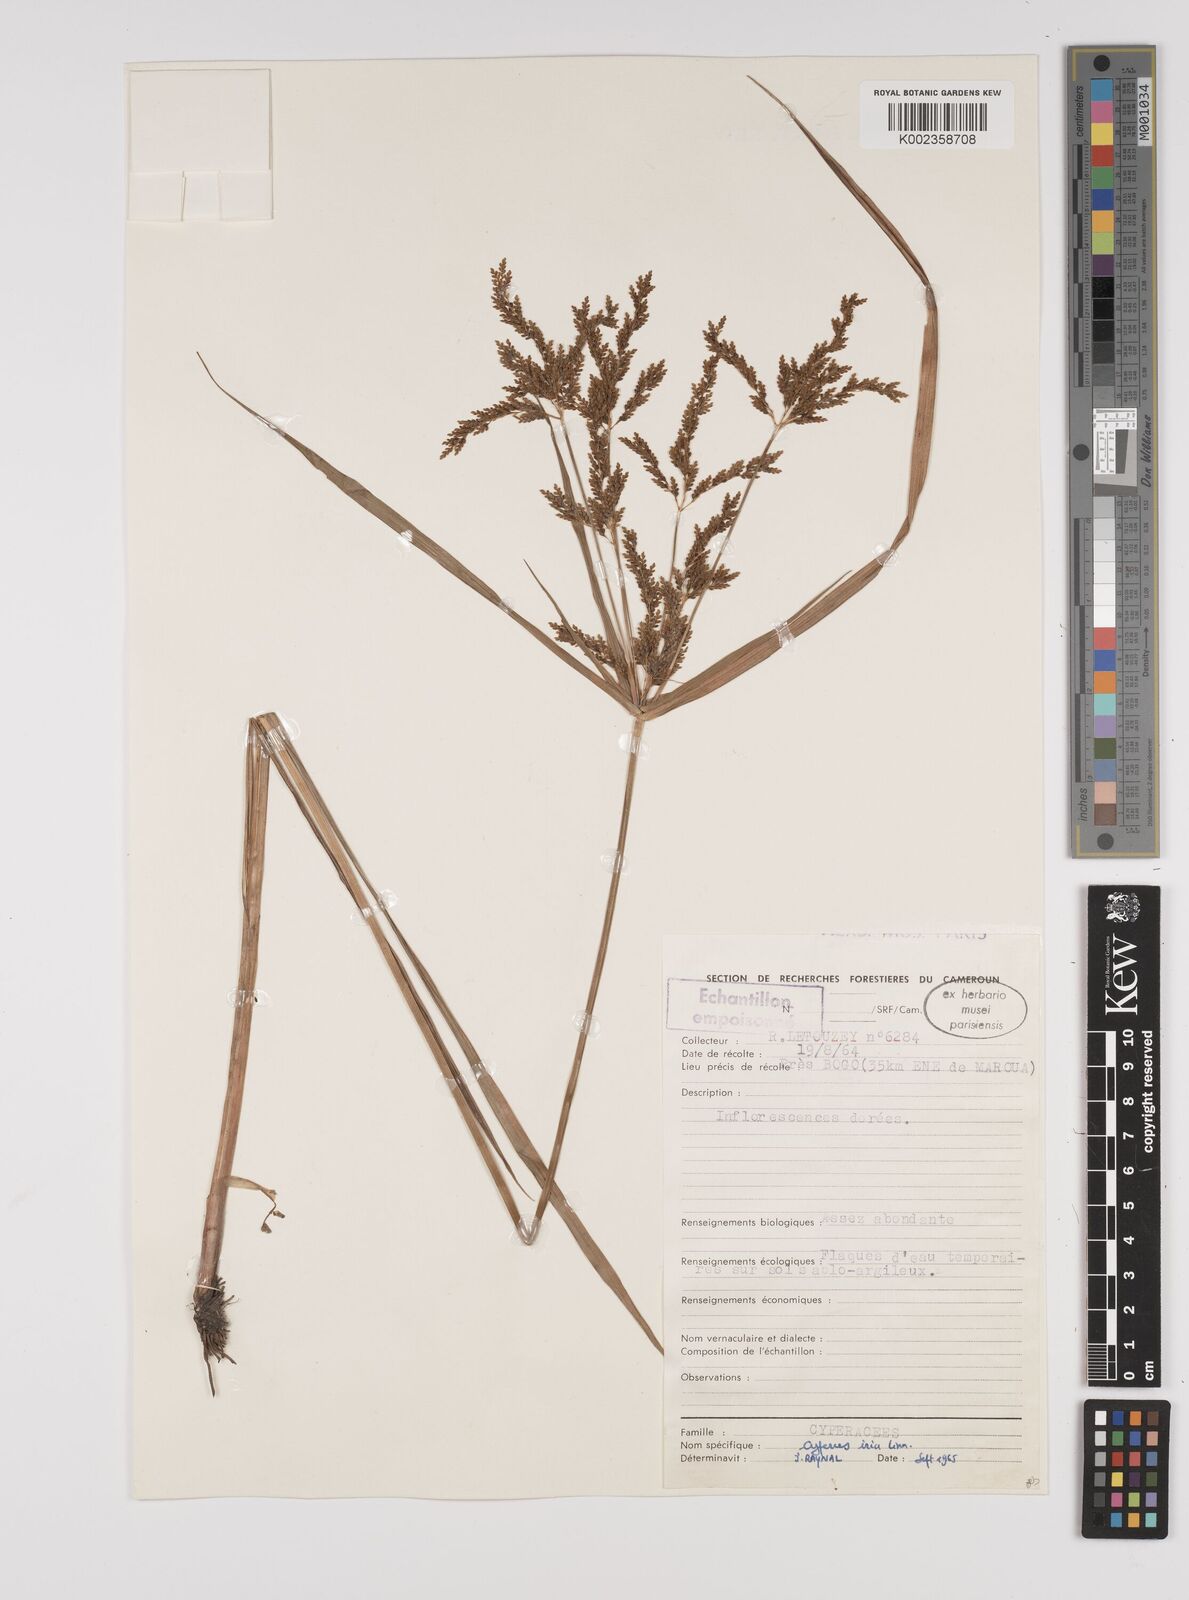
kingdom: Plantae
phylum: Tracheophyta
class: Liliopsida
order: Poales
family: Cyperaceae
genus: Cyperus
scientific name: Cyperus iria
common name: Ricefield flatsedge
